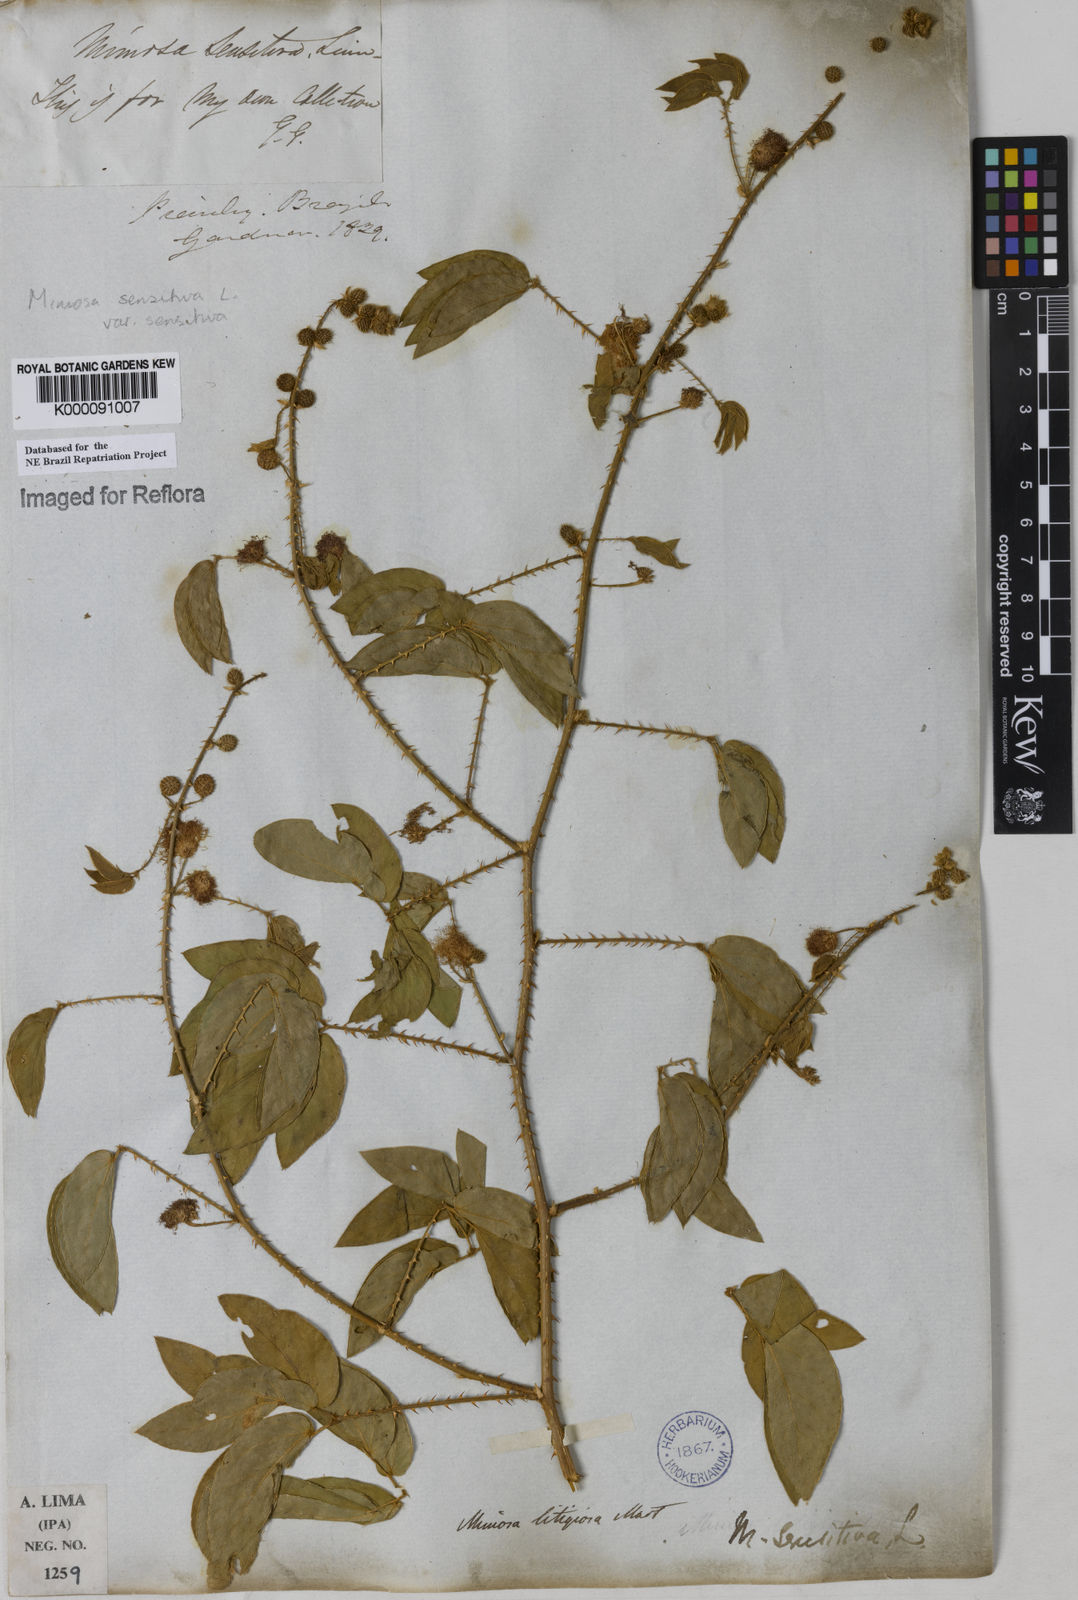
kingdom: Plantae
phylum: Tracheophyta
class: Magnoliopsida
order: Fabales
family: Fabaceae
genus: Mimosa
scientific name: Mimosa sensitiva
